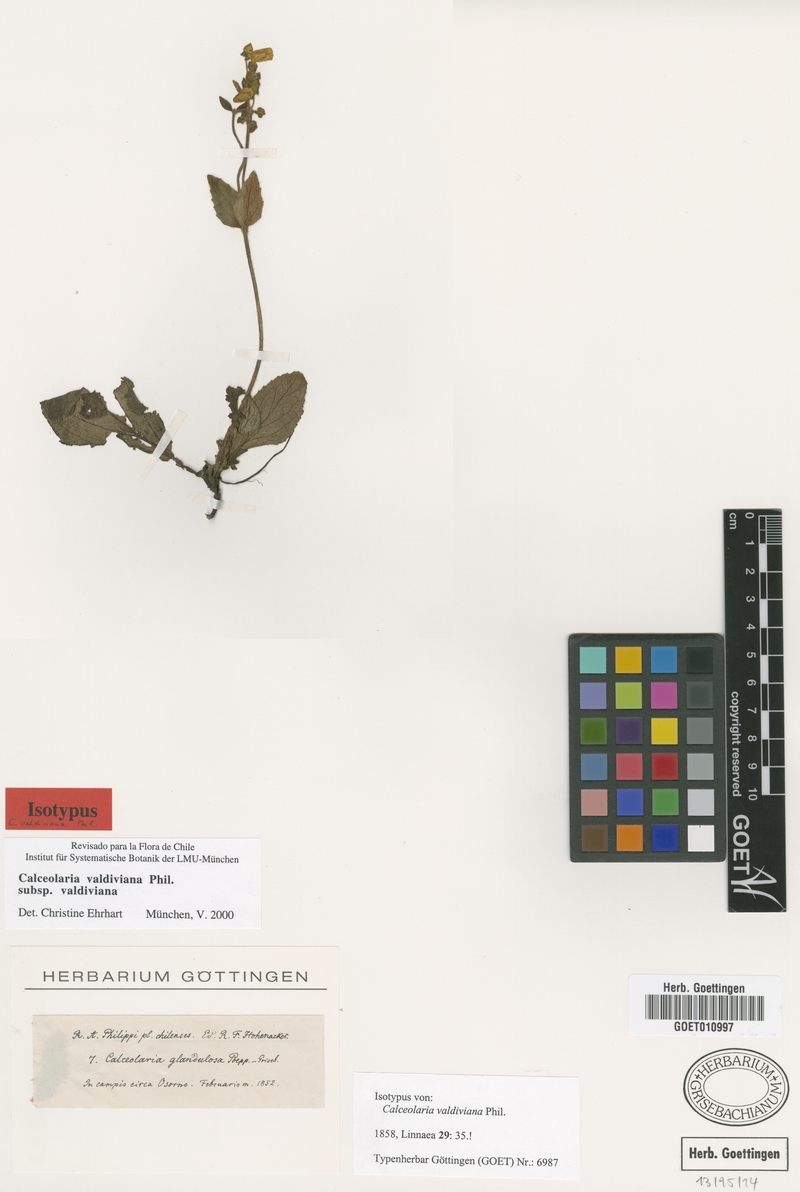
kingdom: Plantae
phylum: Tracheophyta
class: Magnoliopsida
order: Lamiales
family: Calceolariaceae
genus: Calceolaria
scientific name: Calceolaria valdiviana
